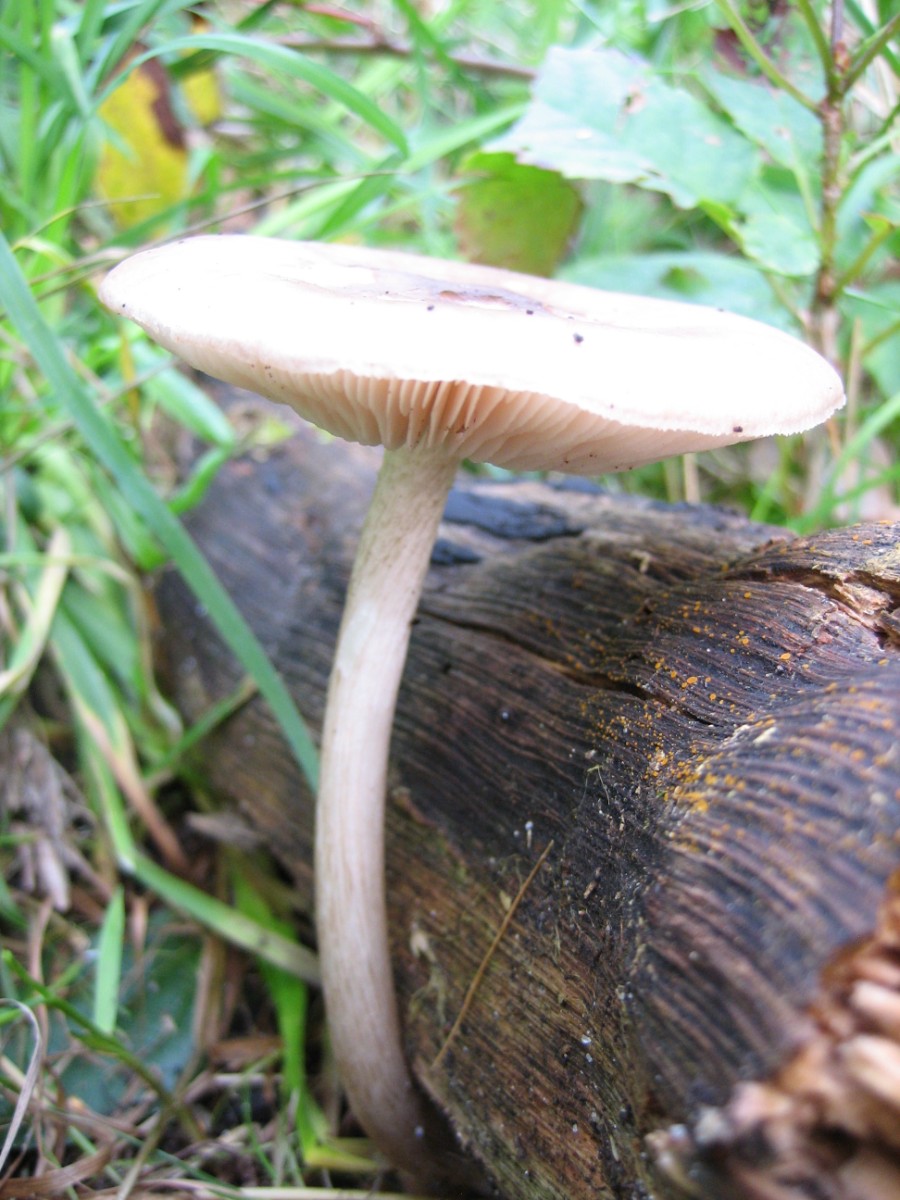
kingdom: Fungi
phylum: Basidiomycota
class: Agaricomycetes
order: Agaricales
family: Pluteaceae
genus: Pluteus
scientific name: Pluteus cervinus
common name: sodfarvet skærmhat
